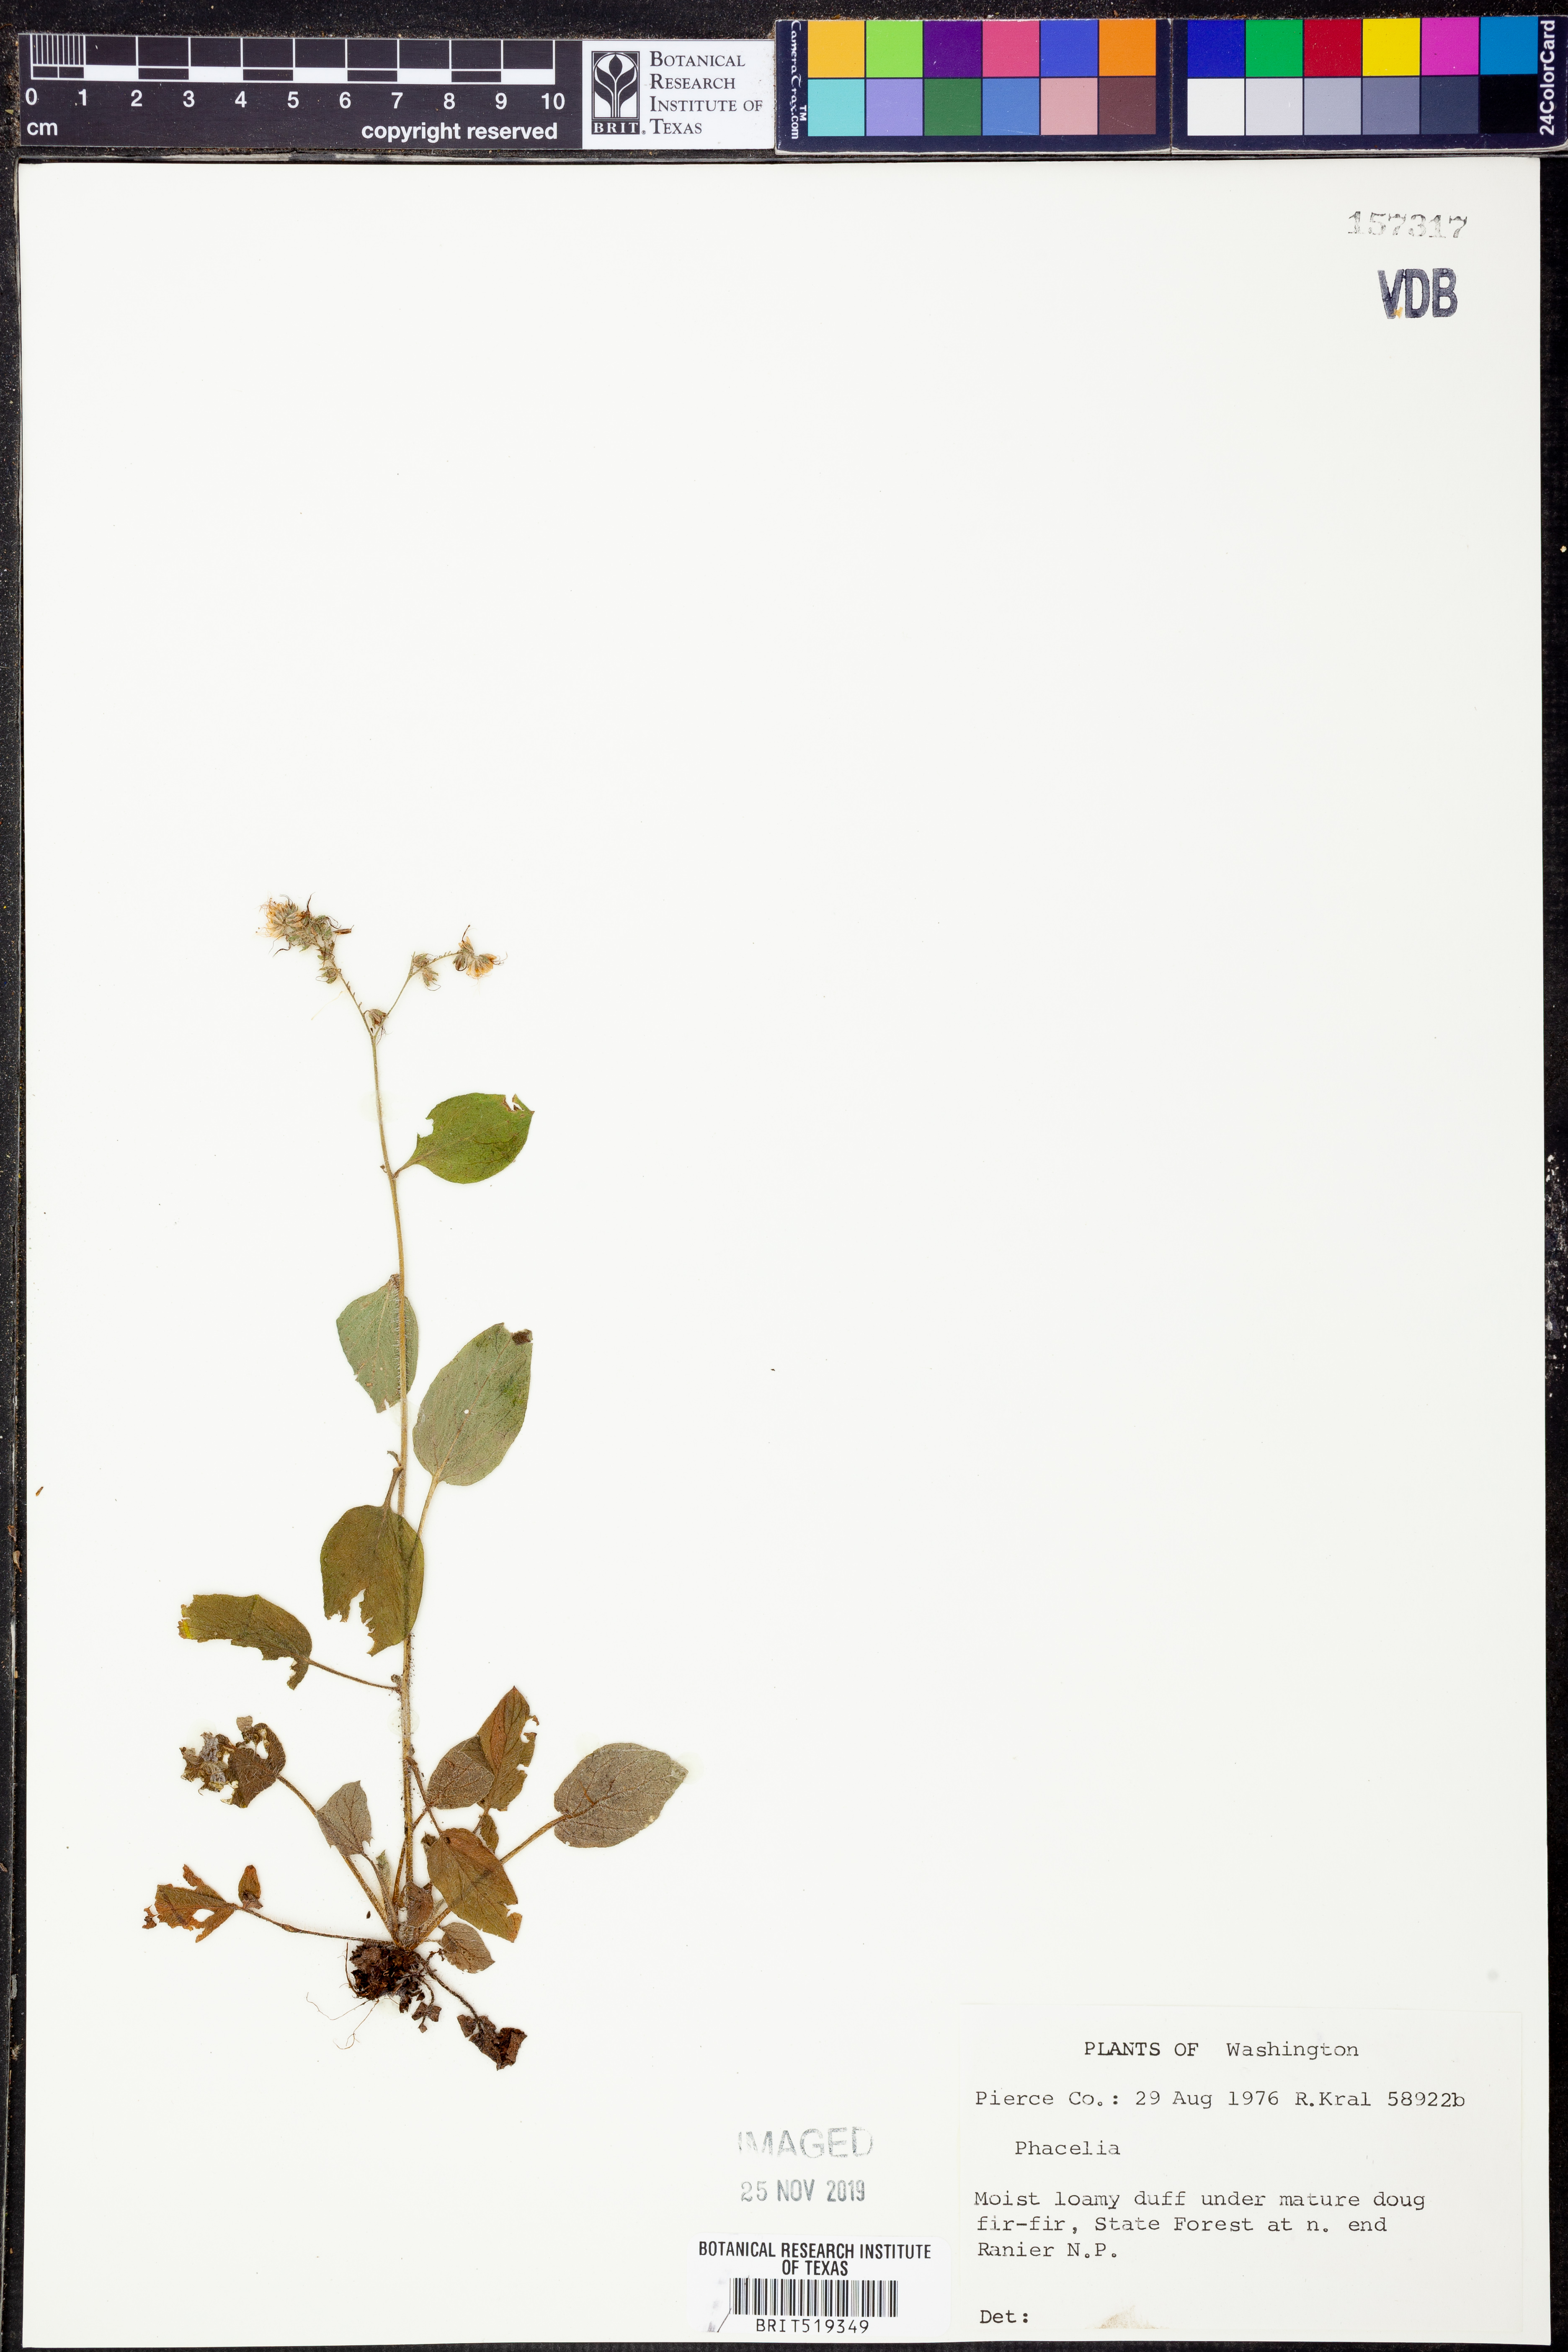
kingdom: Plantae
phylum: Tracheophyta
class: Magnoliopsida
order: Boraginales
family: Hydrophyllaceae
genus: Phacelia
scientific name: Phacelia
